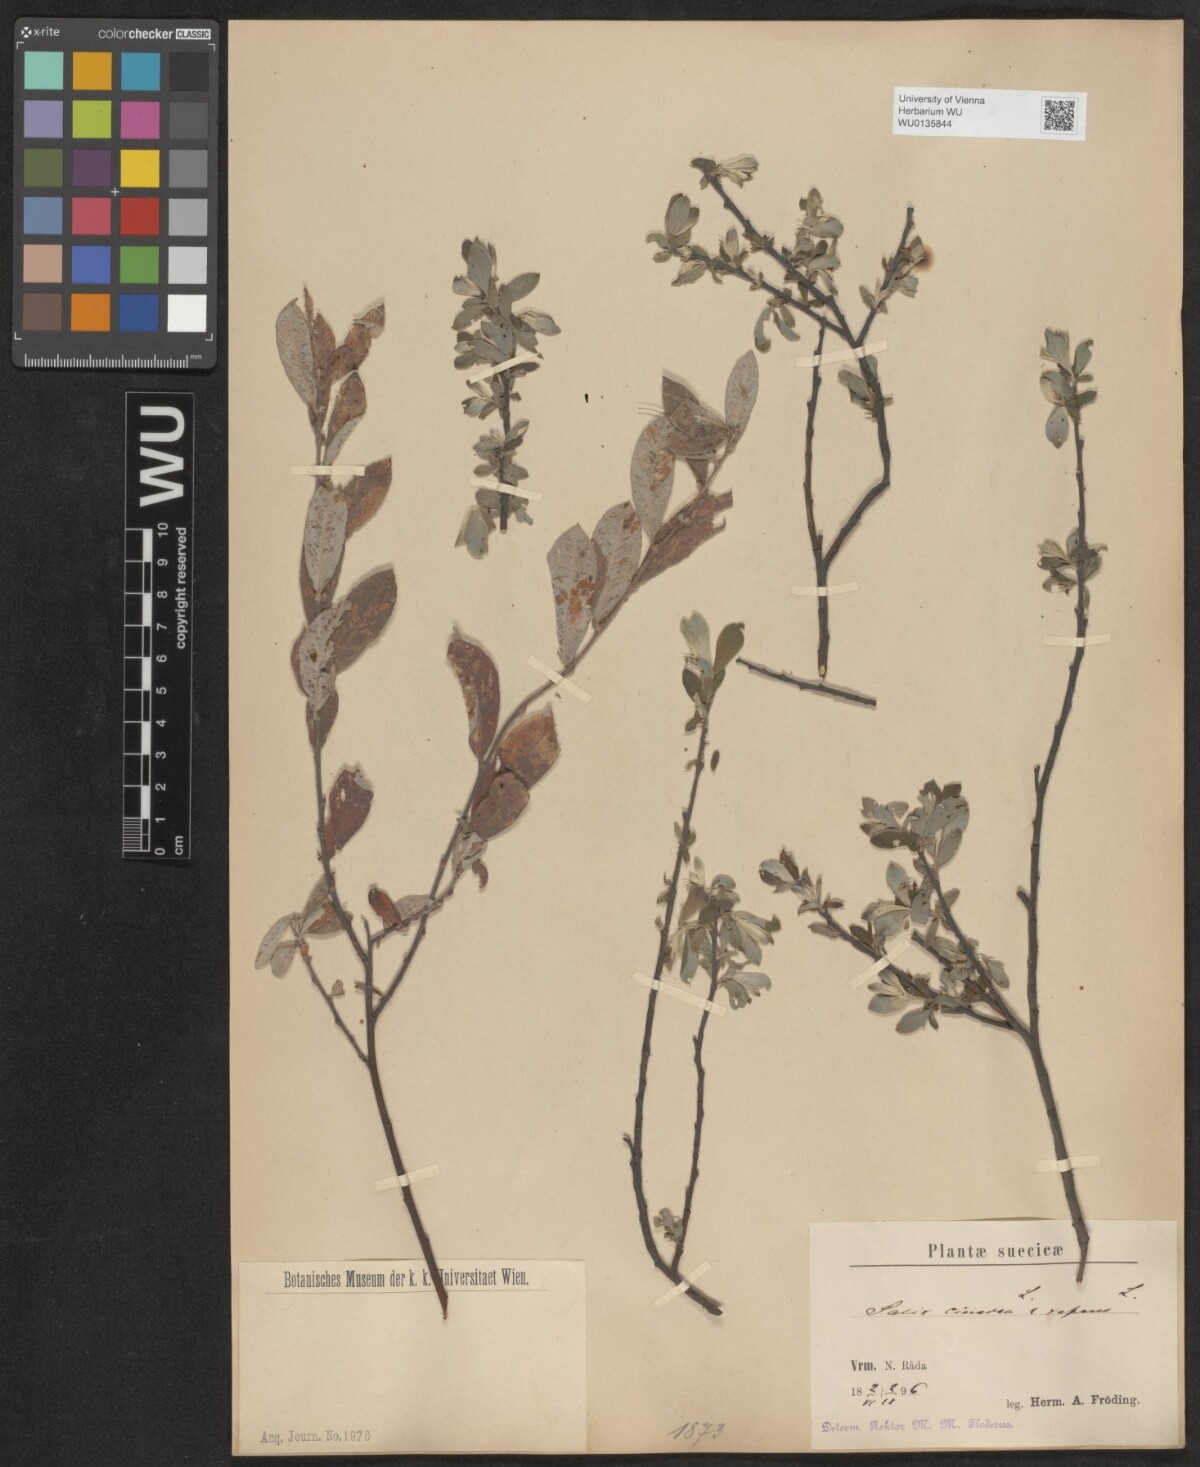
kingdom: Plantae
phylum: Tracheophyta
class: Magnoliopsida
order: Malpighiales
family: Salicaceae
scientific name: Salicaceae
